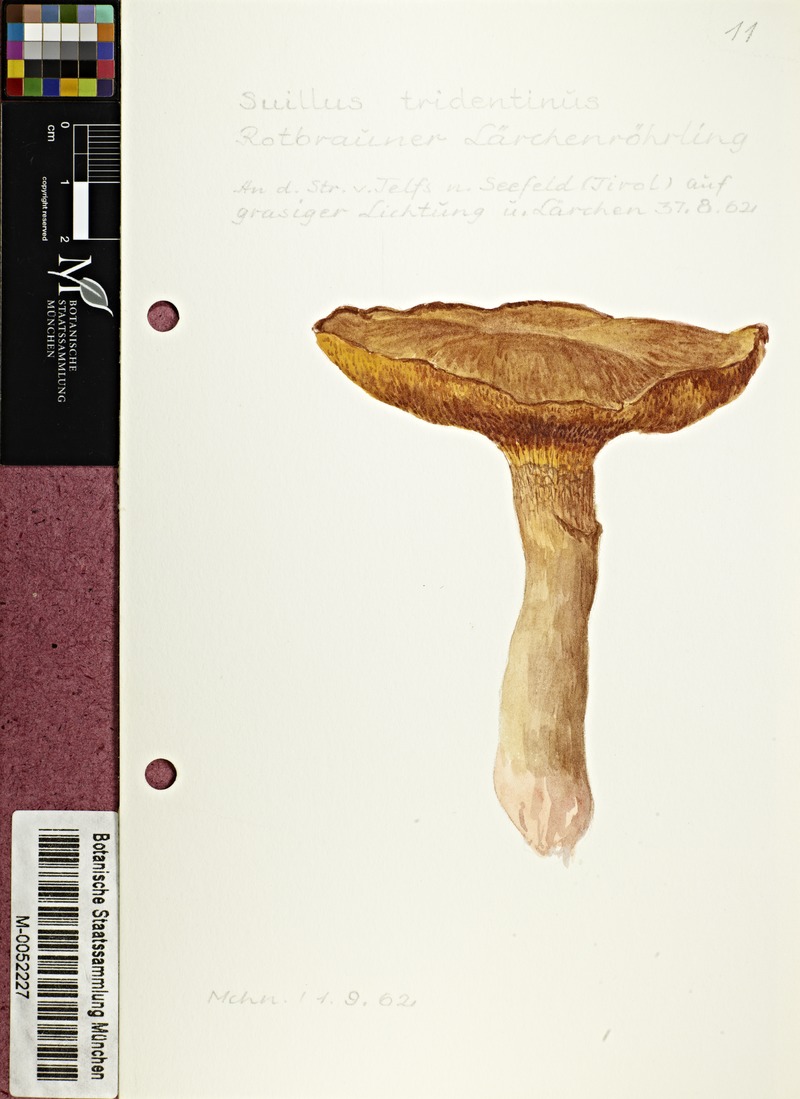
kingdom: Fungi
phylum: Basidiomycota
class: Agaricomycetes
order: Boletales
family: Suillaceae
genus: Suillus
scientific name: Suillus tridentinus
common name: Orange larch bolete
